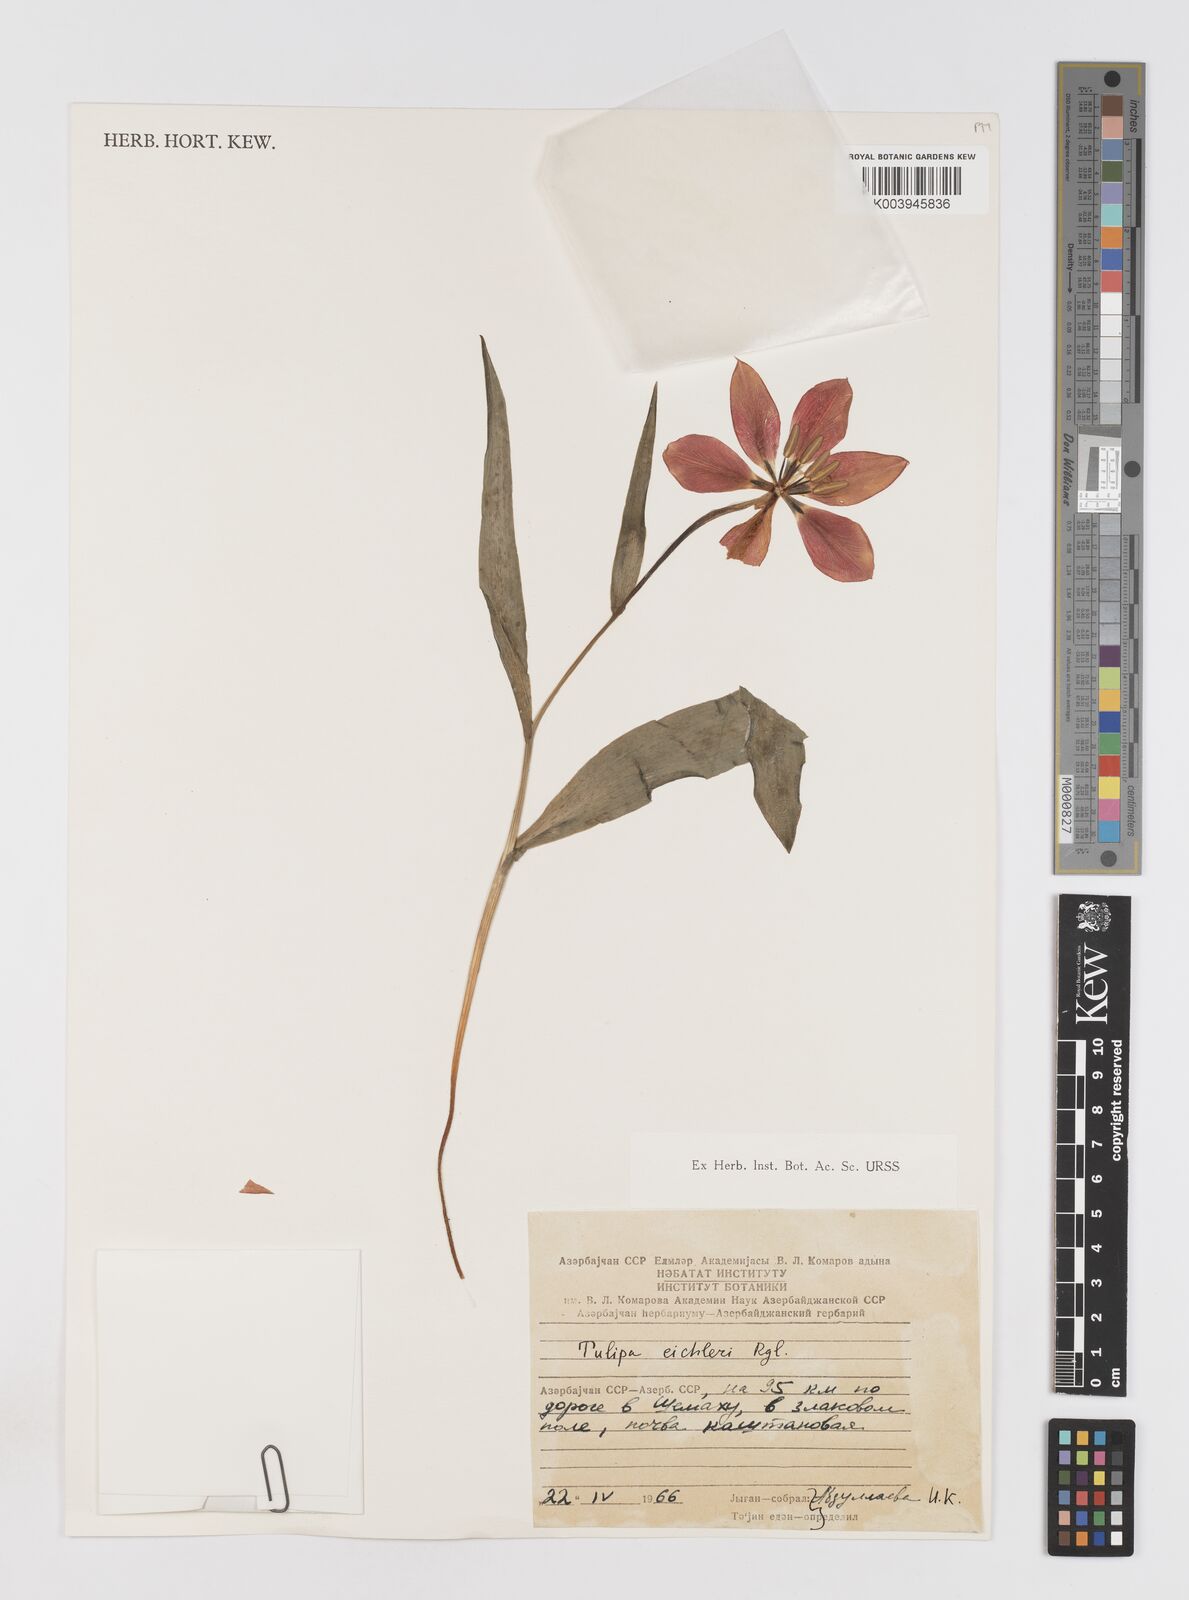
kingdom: Plantae
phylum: Tracheophyta
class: Liliopsida
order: Liliales
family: Liliaceae
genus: Tulipa
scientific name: Tulipa undulatifolia
